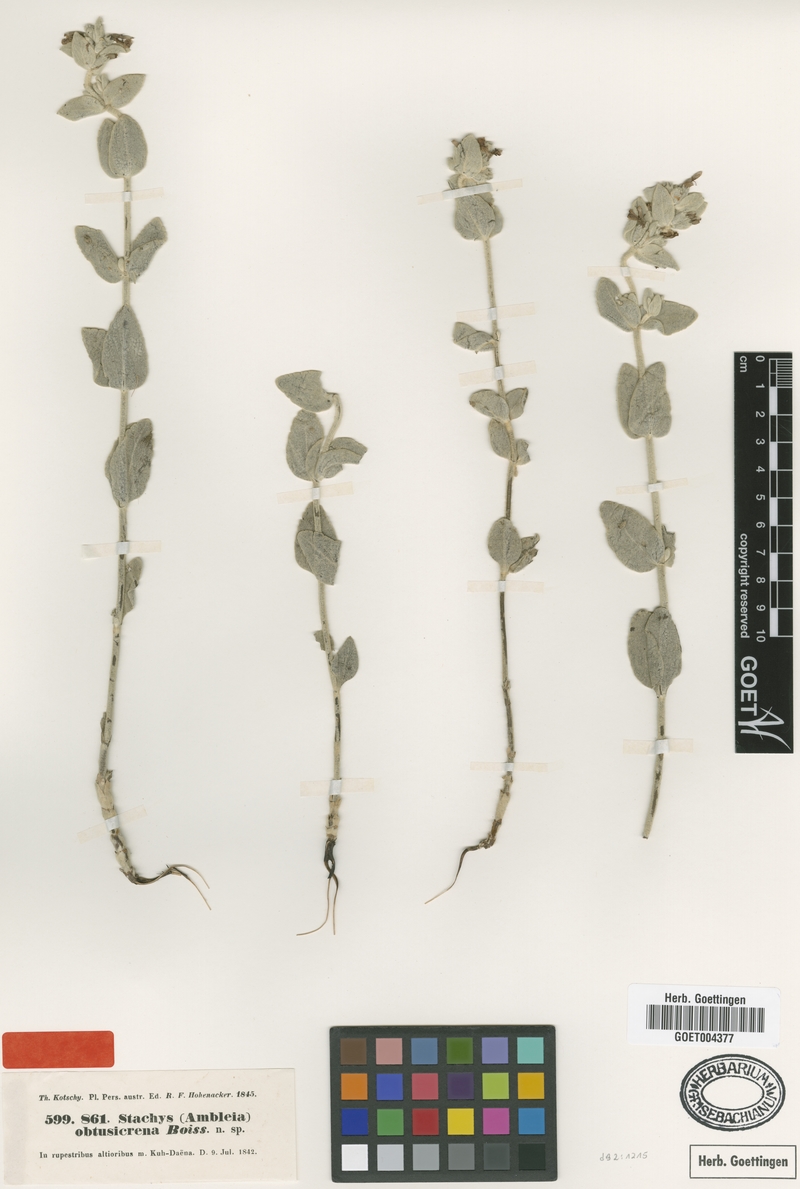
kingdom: Plantae
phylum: Tracheophyta
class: Magnoliopsida
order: Lamiales
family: Lamiaceae
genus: Stachys
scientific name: Stachys obtusicrena
